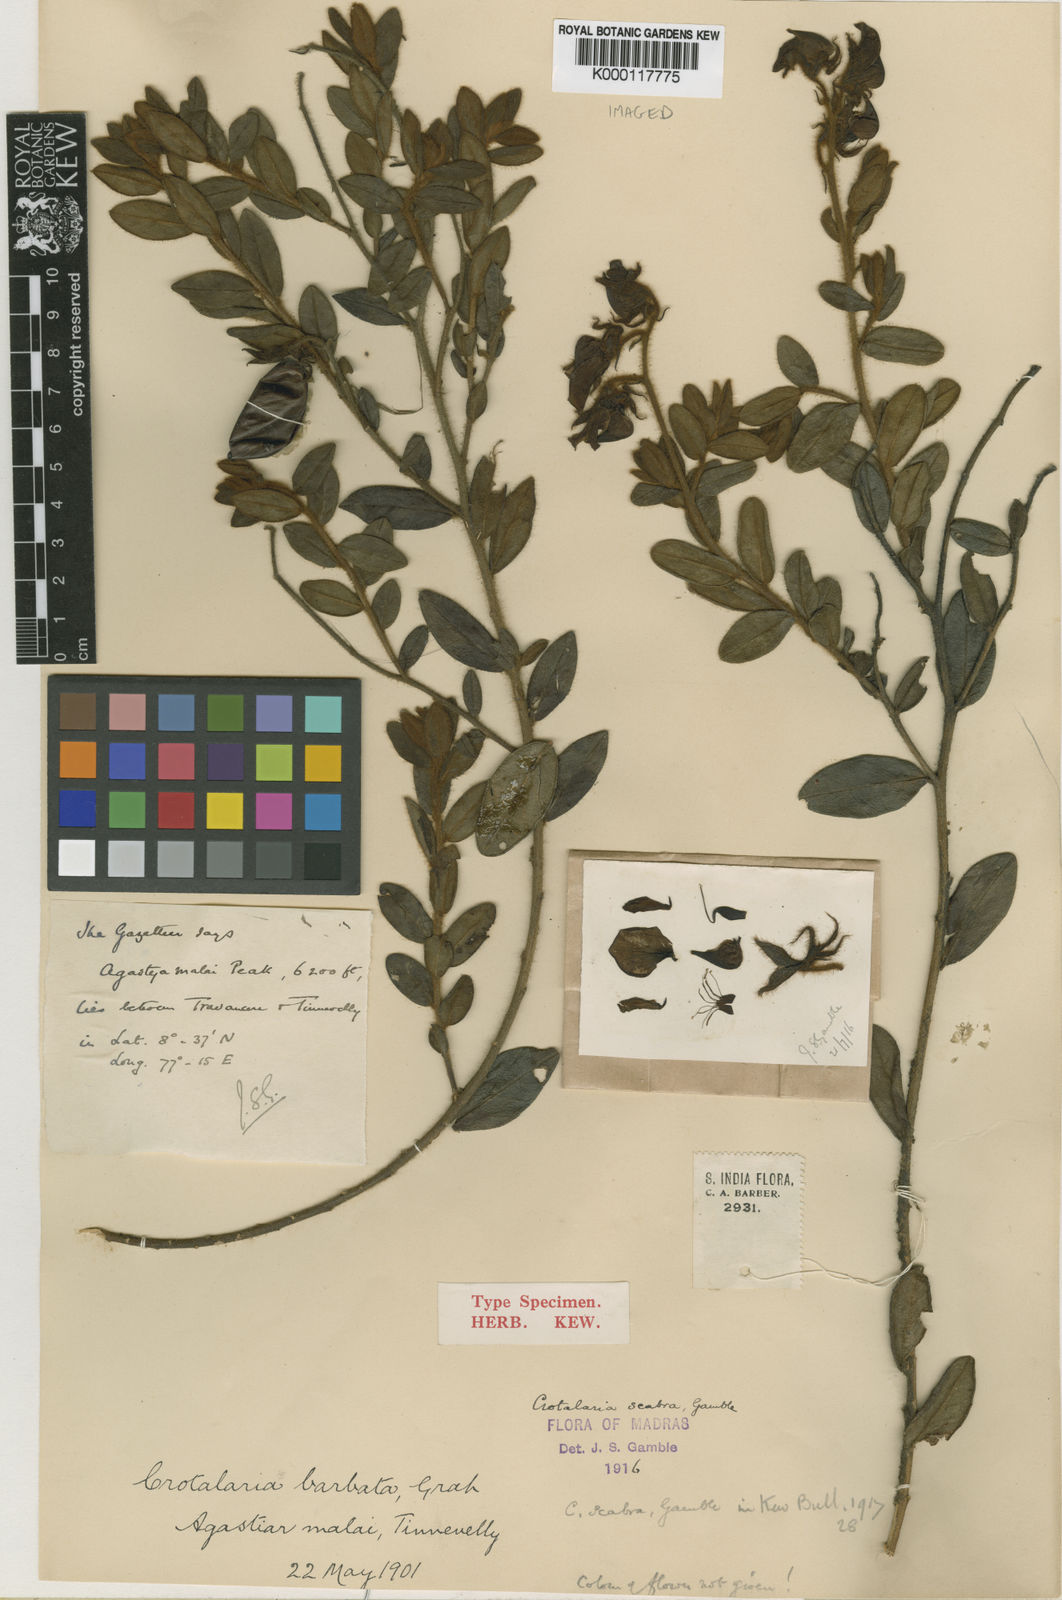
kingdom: Plantae
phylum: Tracheophyta
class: Magnoliopsida
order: Fabales
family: Fabaceae
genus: Crotalaria
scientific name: Crotalaria scabra
